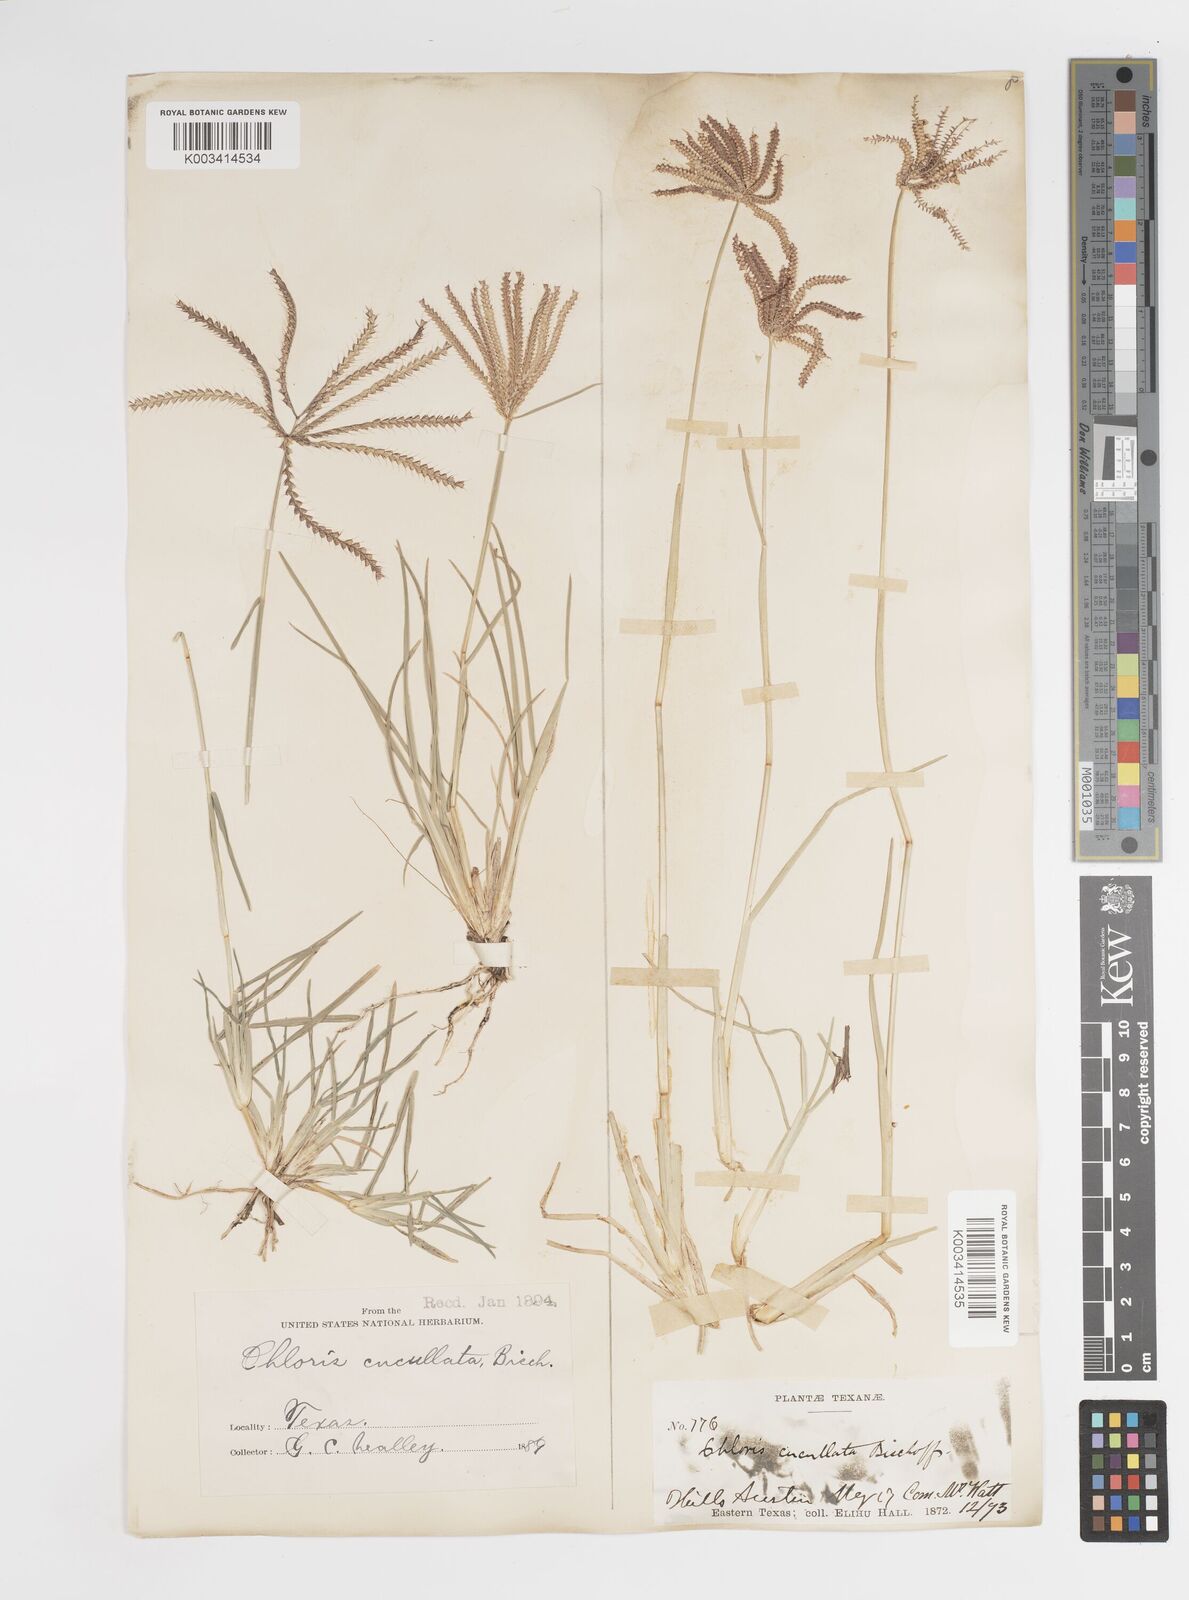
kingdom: Plantae
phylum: Tracheophyta
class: Liliopsida
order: Poales
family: Poaceae
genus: Chloris
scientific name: Chloris cucullata
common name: Hooded windmill grass
